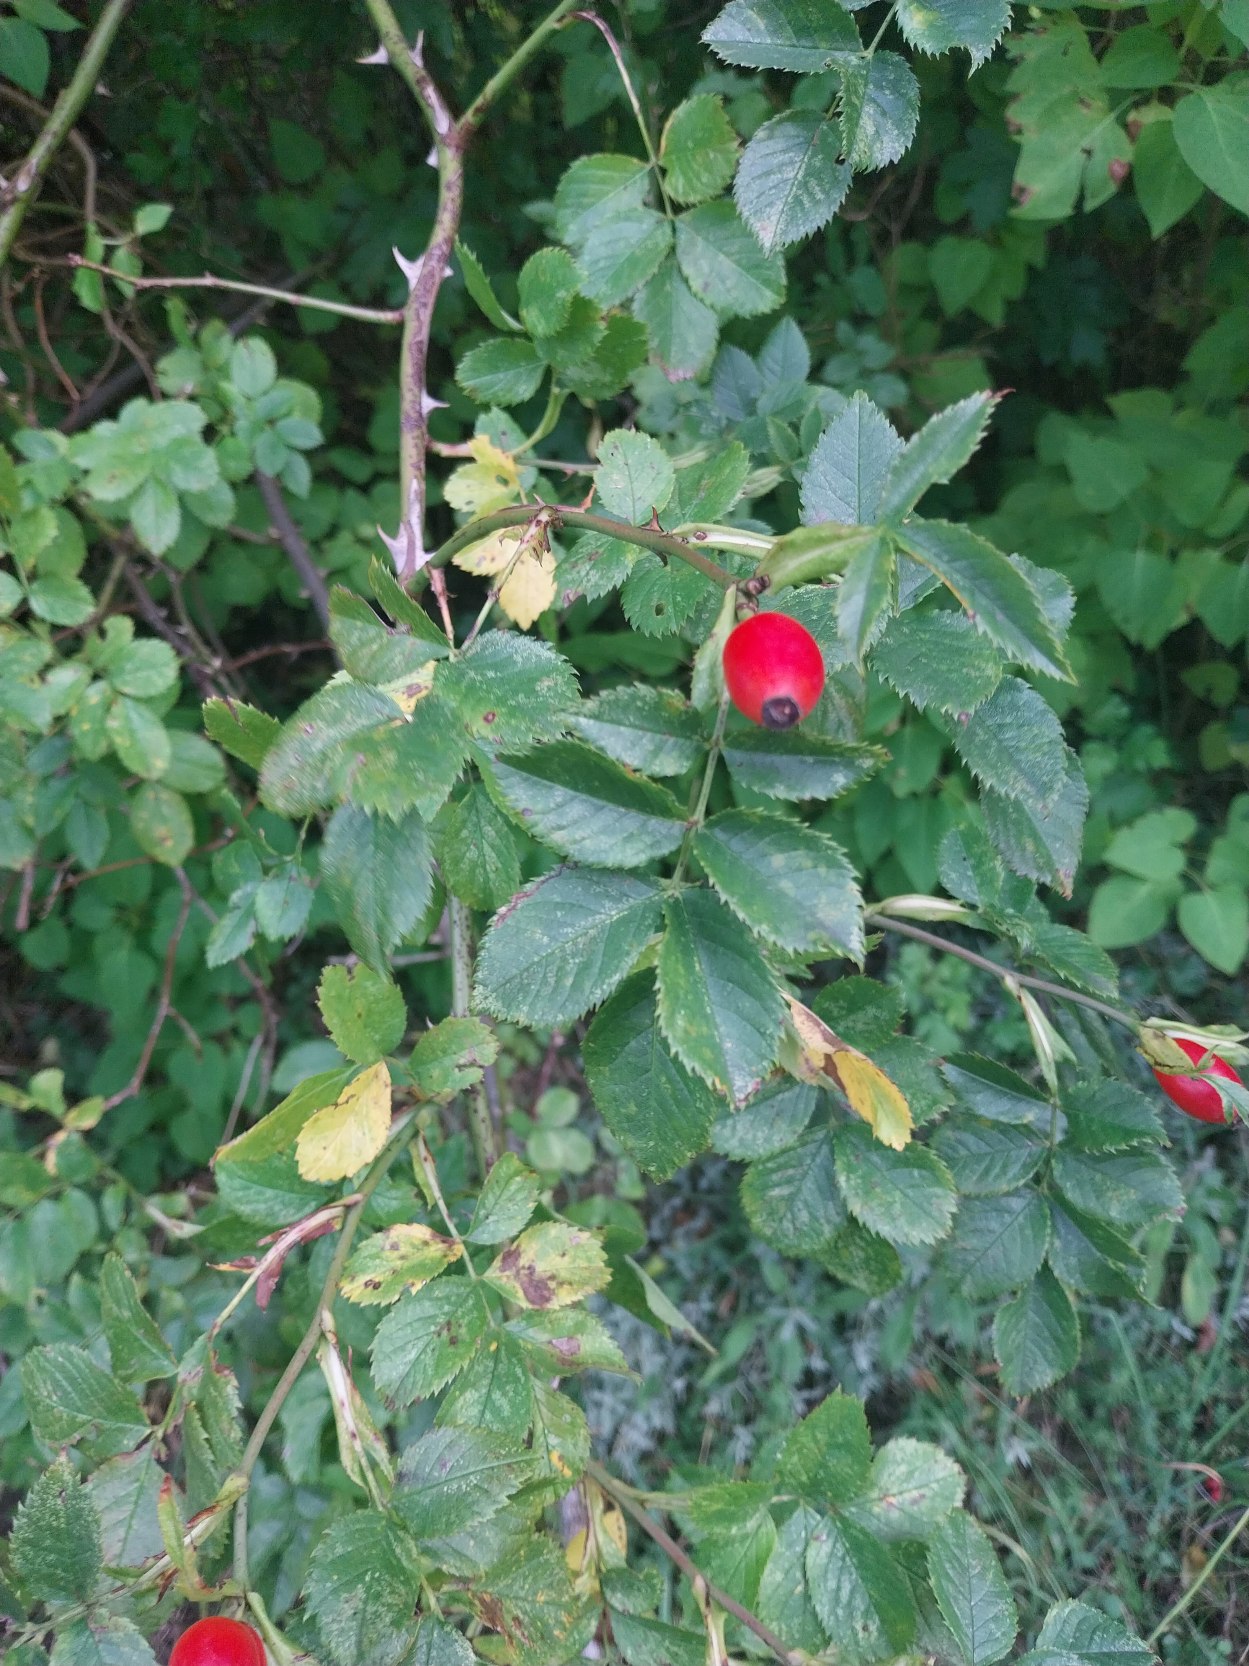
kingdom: Plantae
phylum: Tracheophyta
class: Magnoliopsida
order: Rosales
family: Rosaceae
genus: Rosa
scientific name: Rosa canina
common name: Glat hunde-rose
